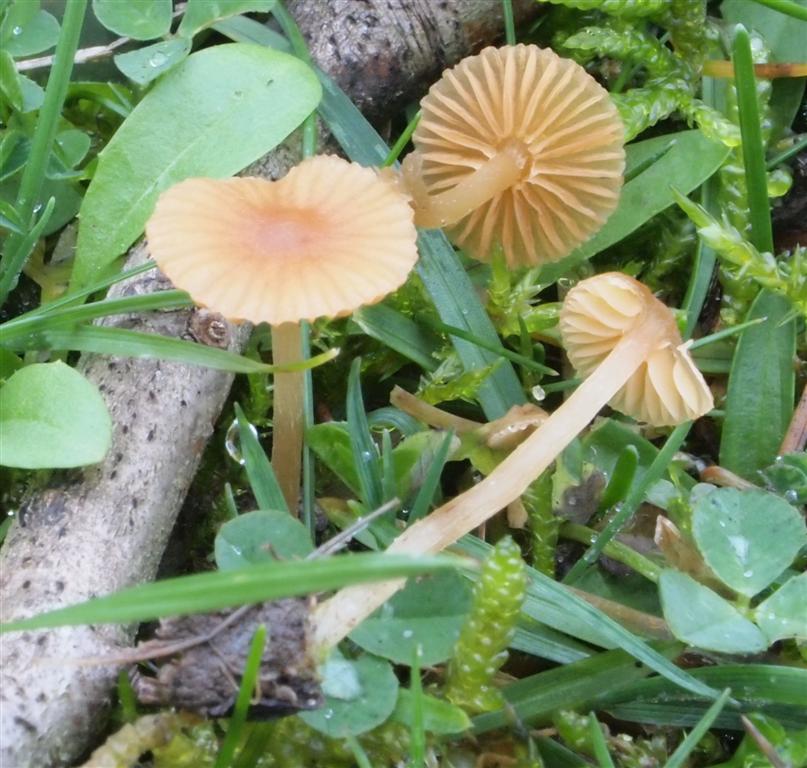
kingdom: Fungi
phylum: Basidiomycota
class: Agaricomycetes
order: Agaricales
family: Hymenogastraceae
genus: Galerina
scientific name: Galerina graminea
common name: plæne-hjelmhat
